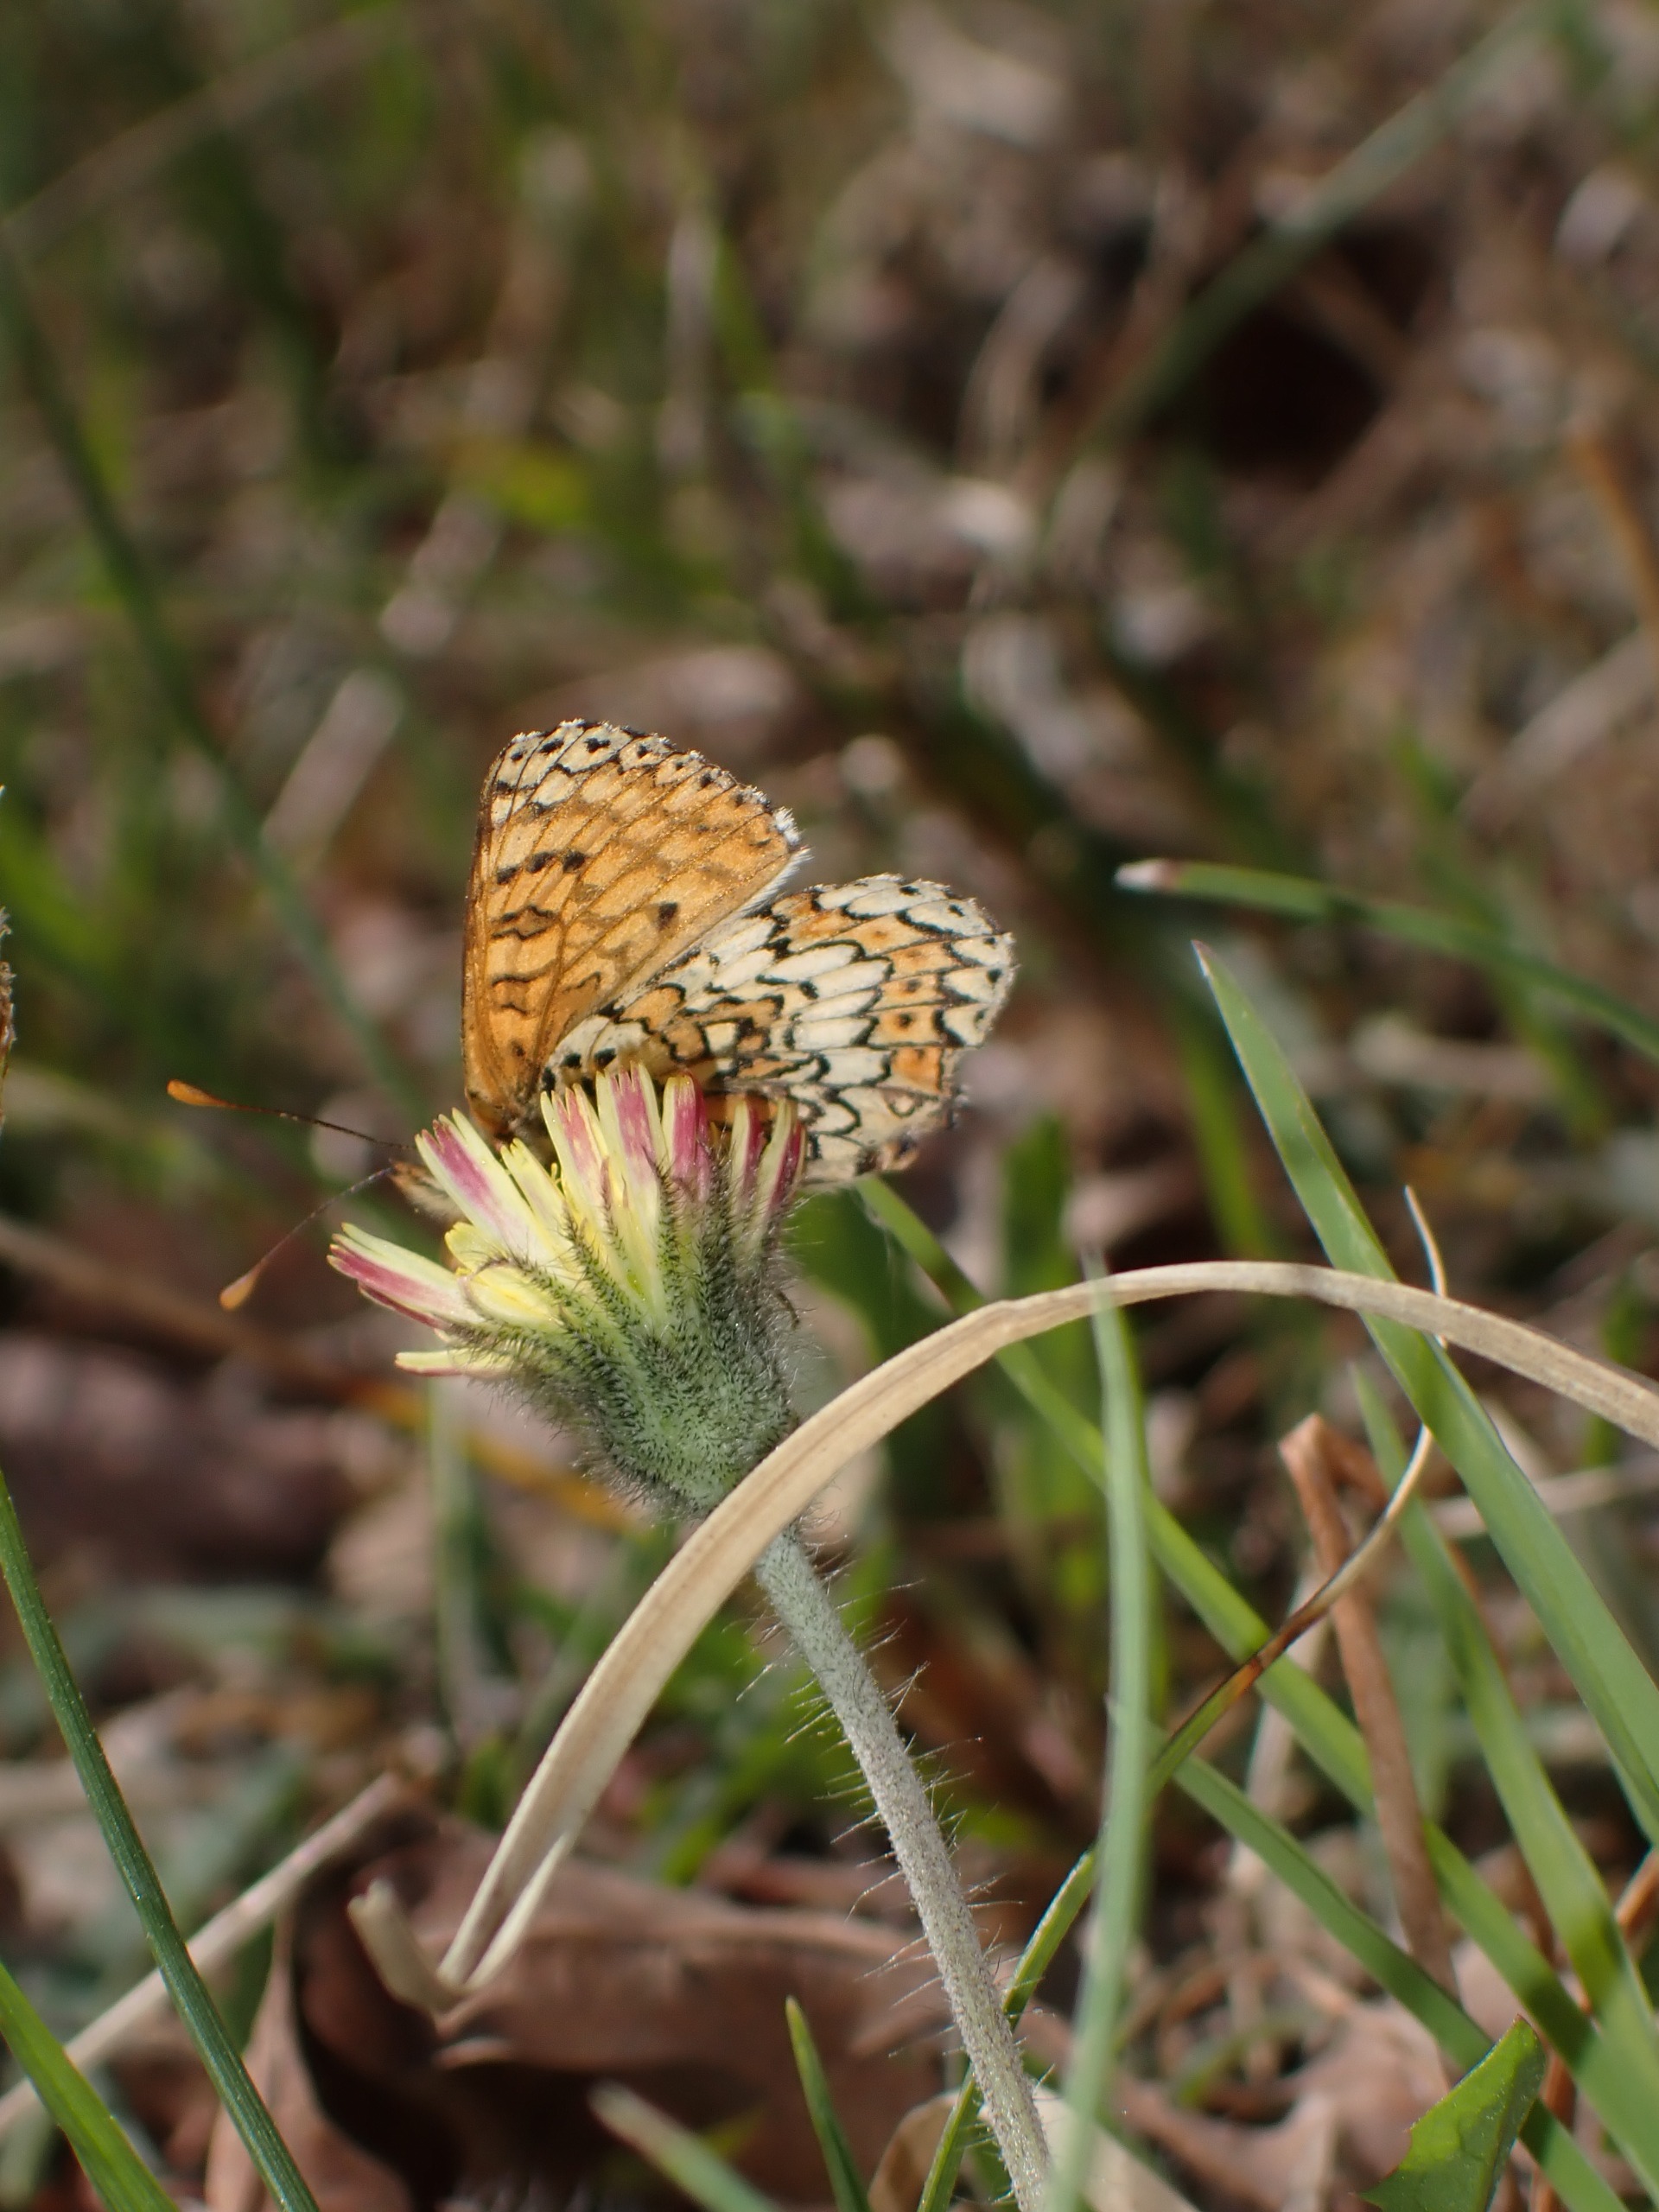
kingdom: Animalia
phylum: Arthropoda
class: Insecta
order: Lepidoptera
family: Nymphalidae
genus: Melitaea
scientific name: Melitaea cinxia
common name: Okkergul pletvinge
